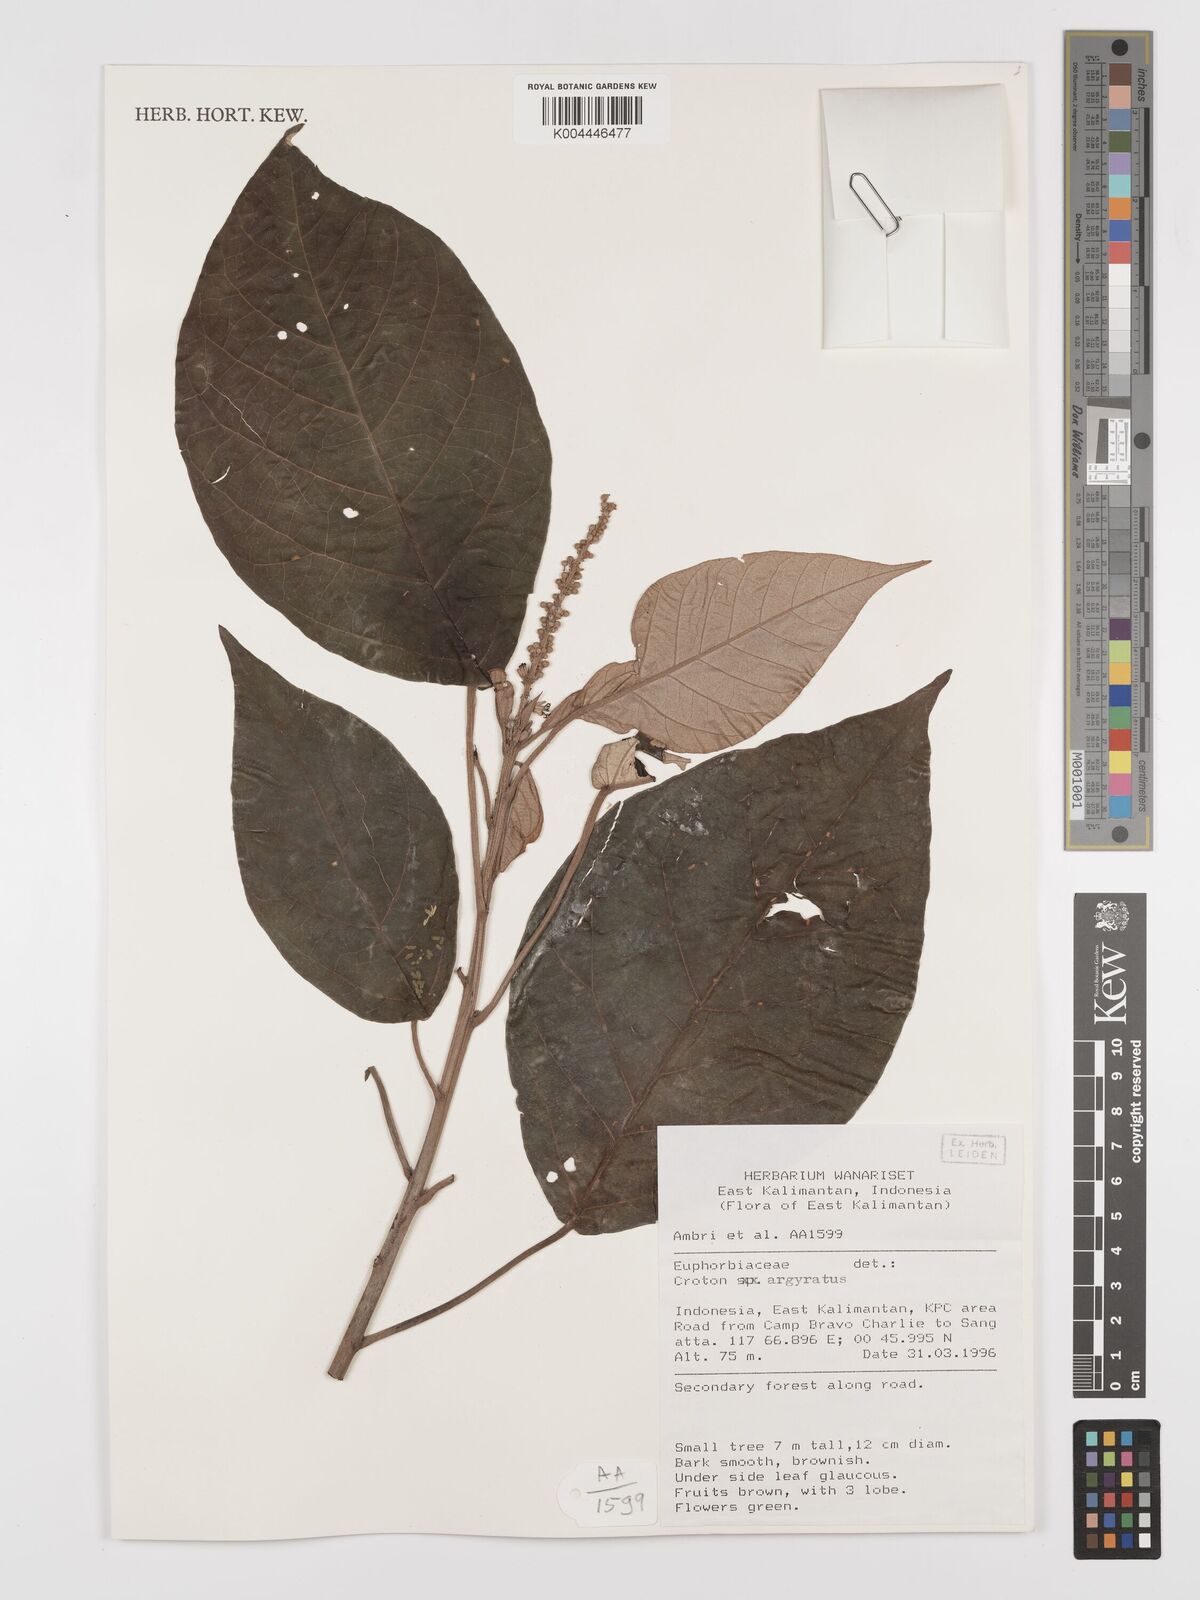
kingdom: Plantae
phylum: Tracheophyta
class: Magnoliopsida
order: Malpighiales
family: Euphorbiaceae
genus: Croton
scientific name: Croton argyratus
